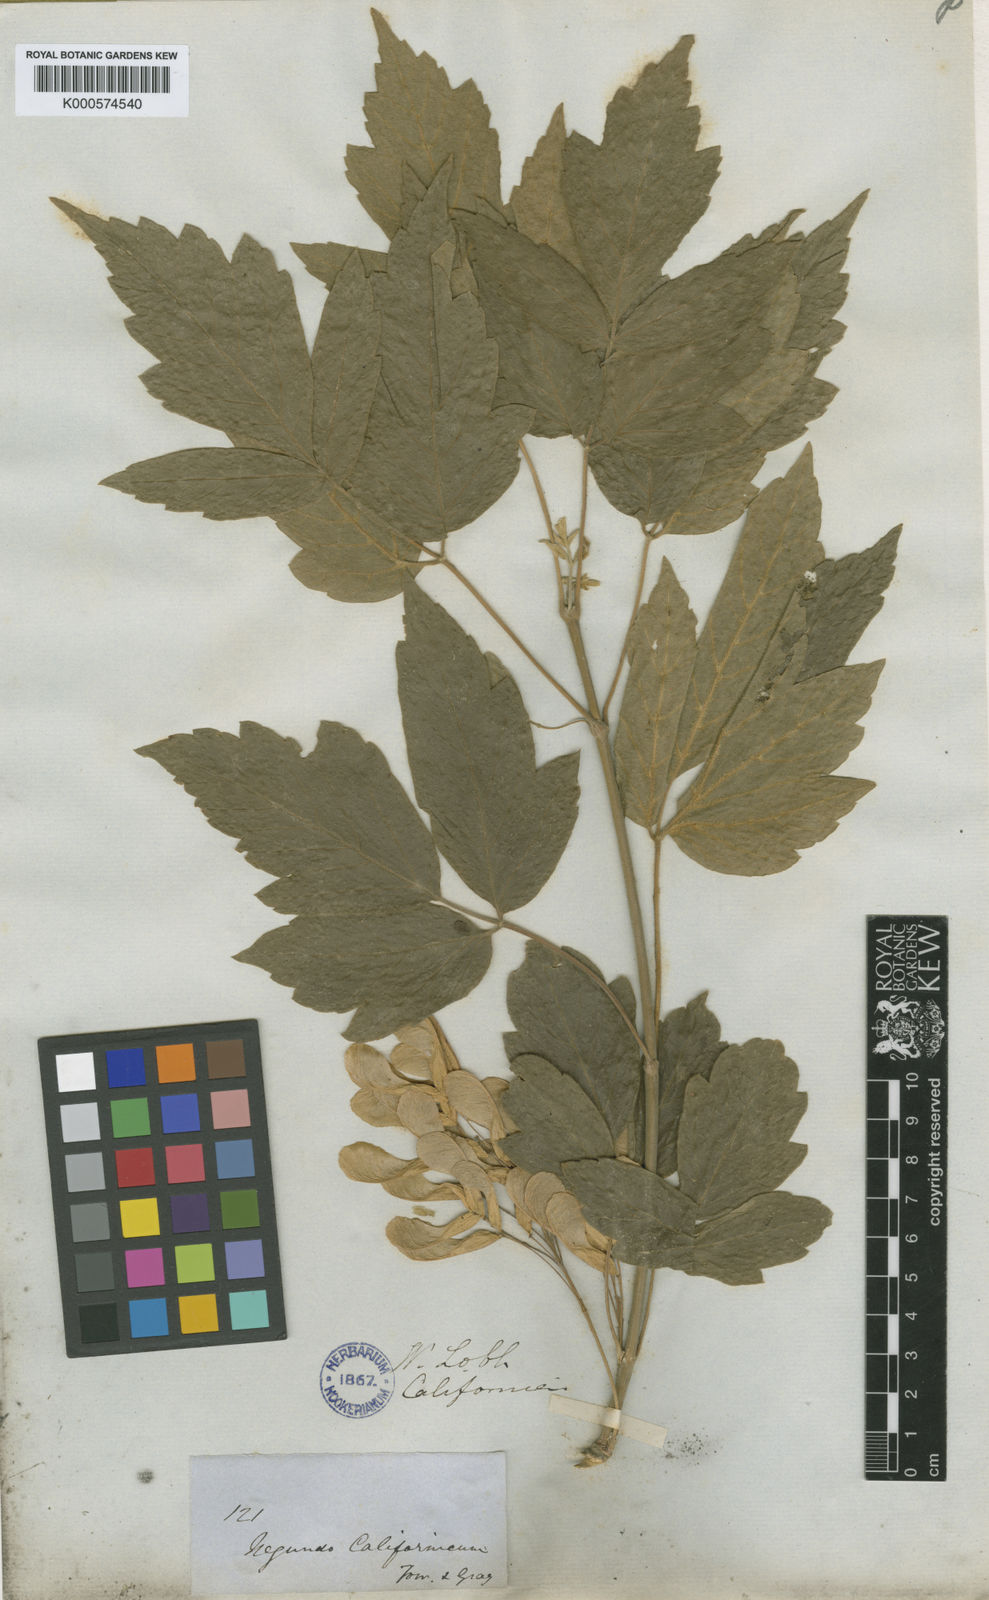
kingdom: Plantae
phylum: Tracheophyta
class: Magnoliopsida
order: Sapindales
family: Sapindaceae
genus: Acer
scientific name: Acer negundo
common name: Ashleaf maple
